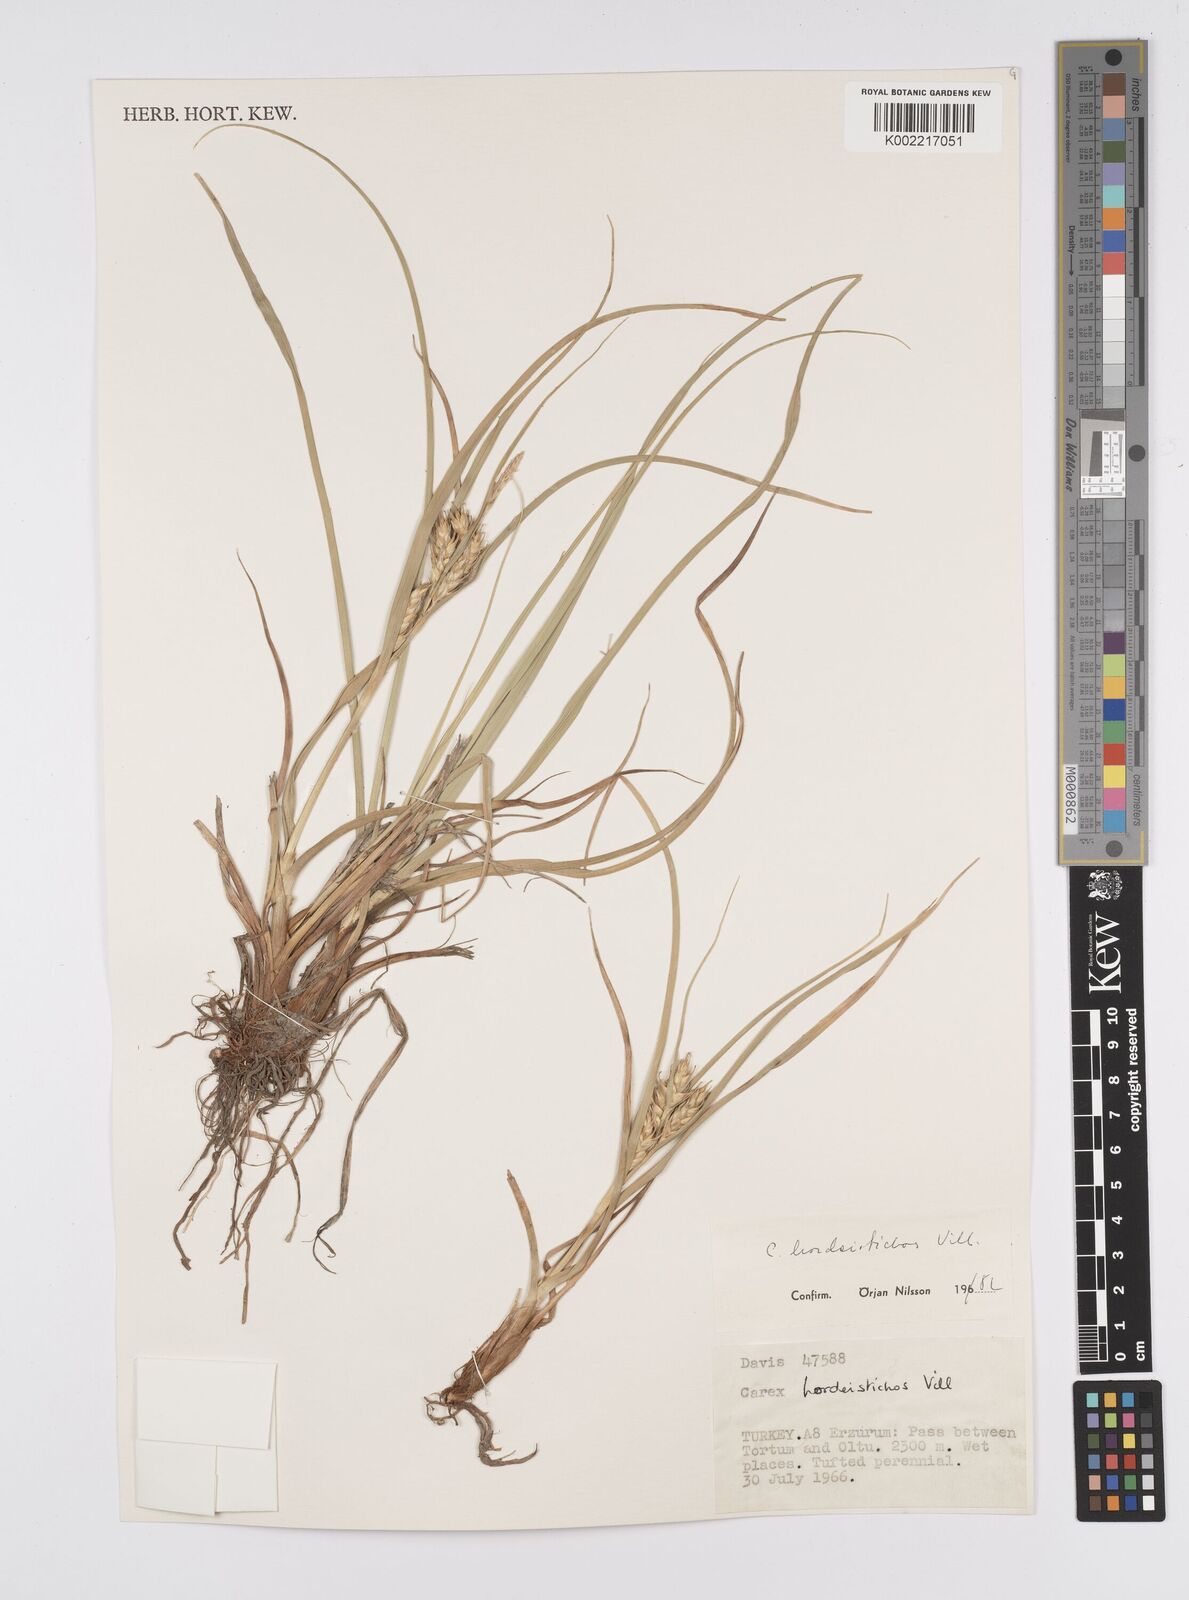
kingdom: Plantae
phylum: Tracheophyta
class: Liliopsida
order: Poales
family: Cyperaceae
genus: Carex
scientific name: Carex hordeistichos
